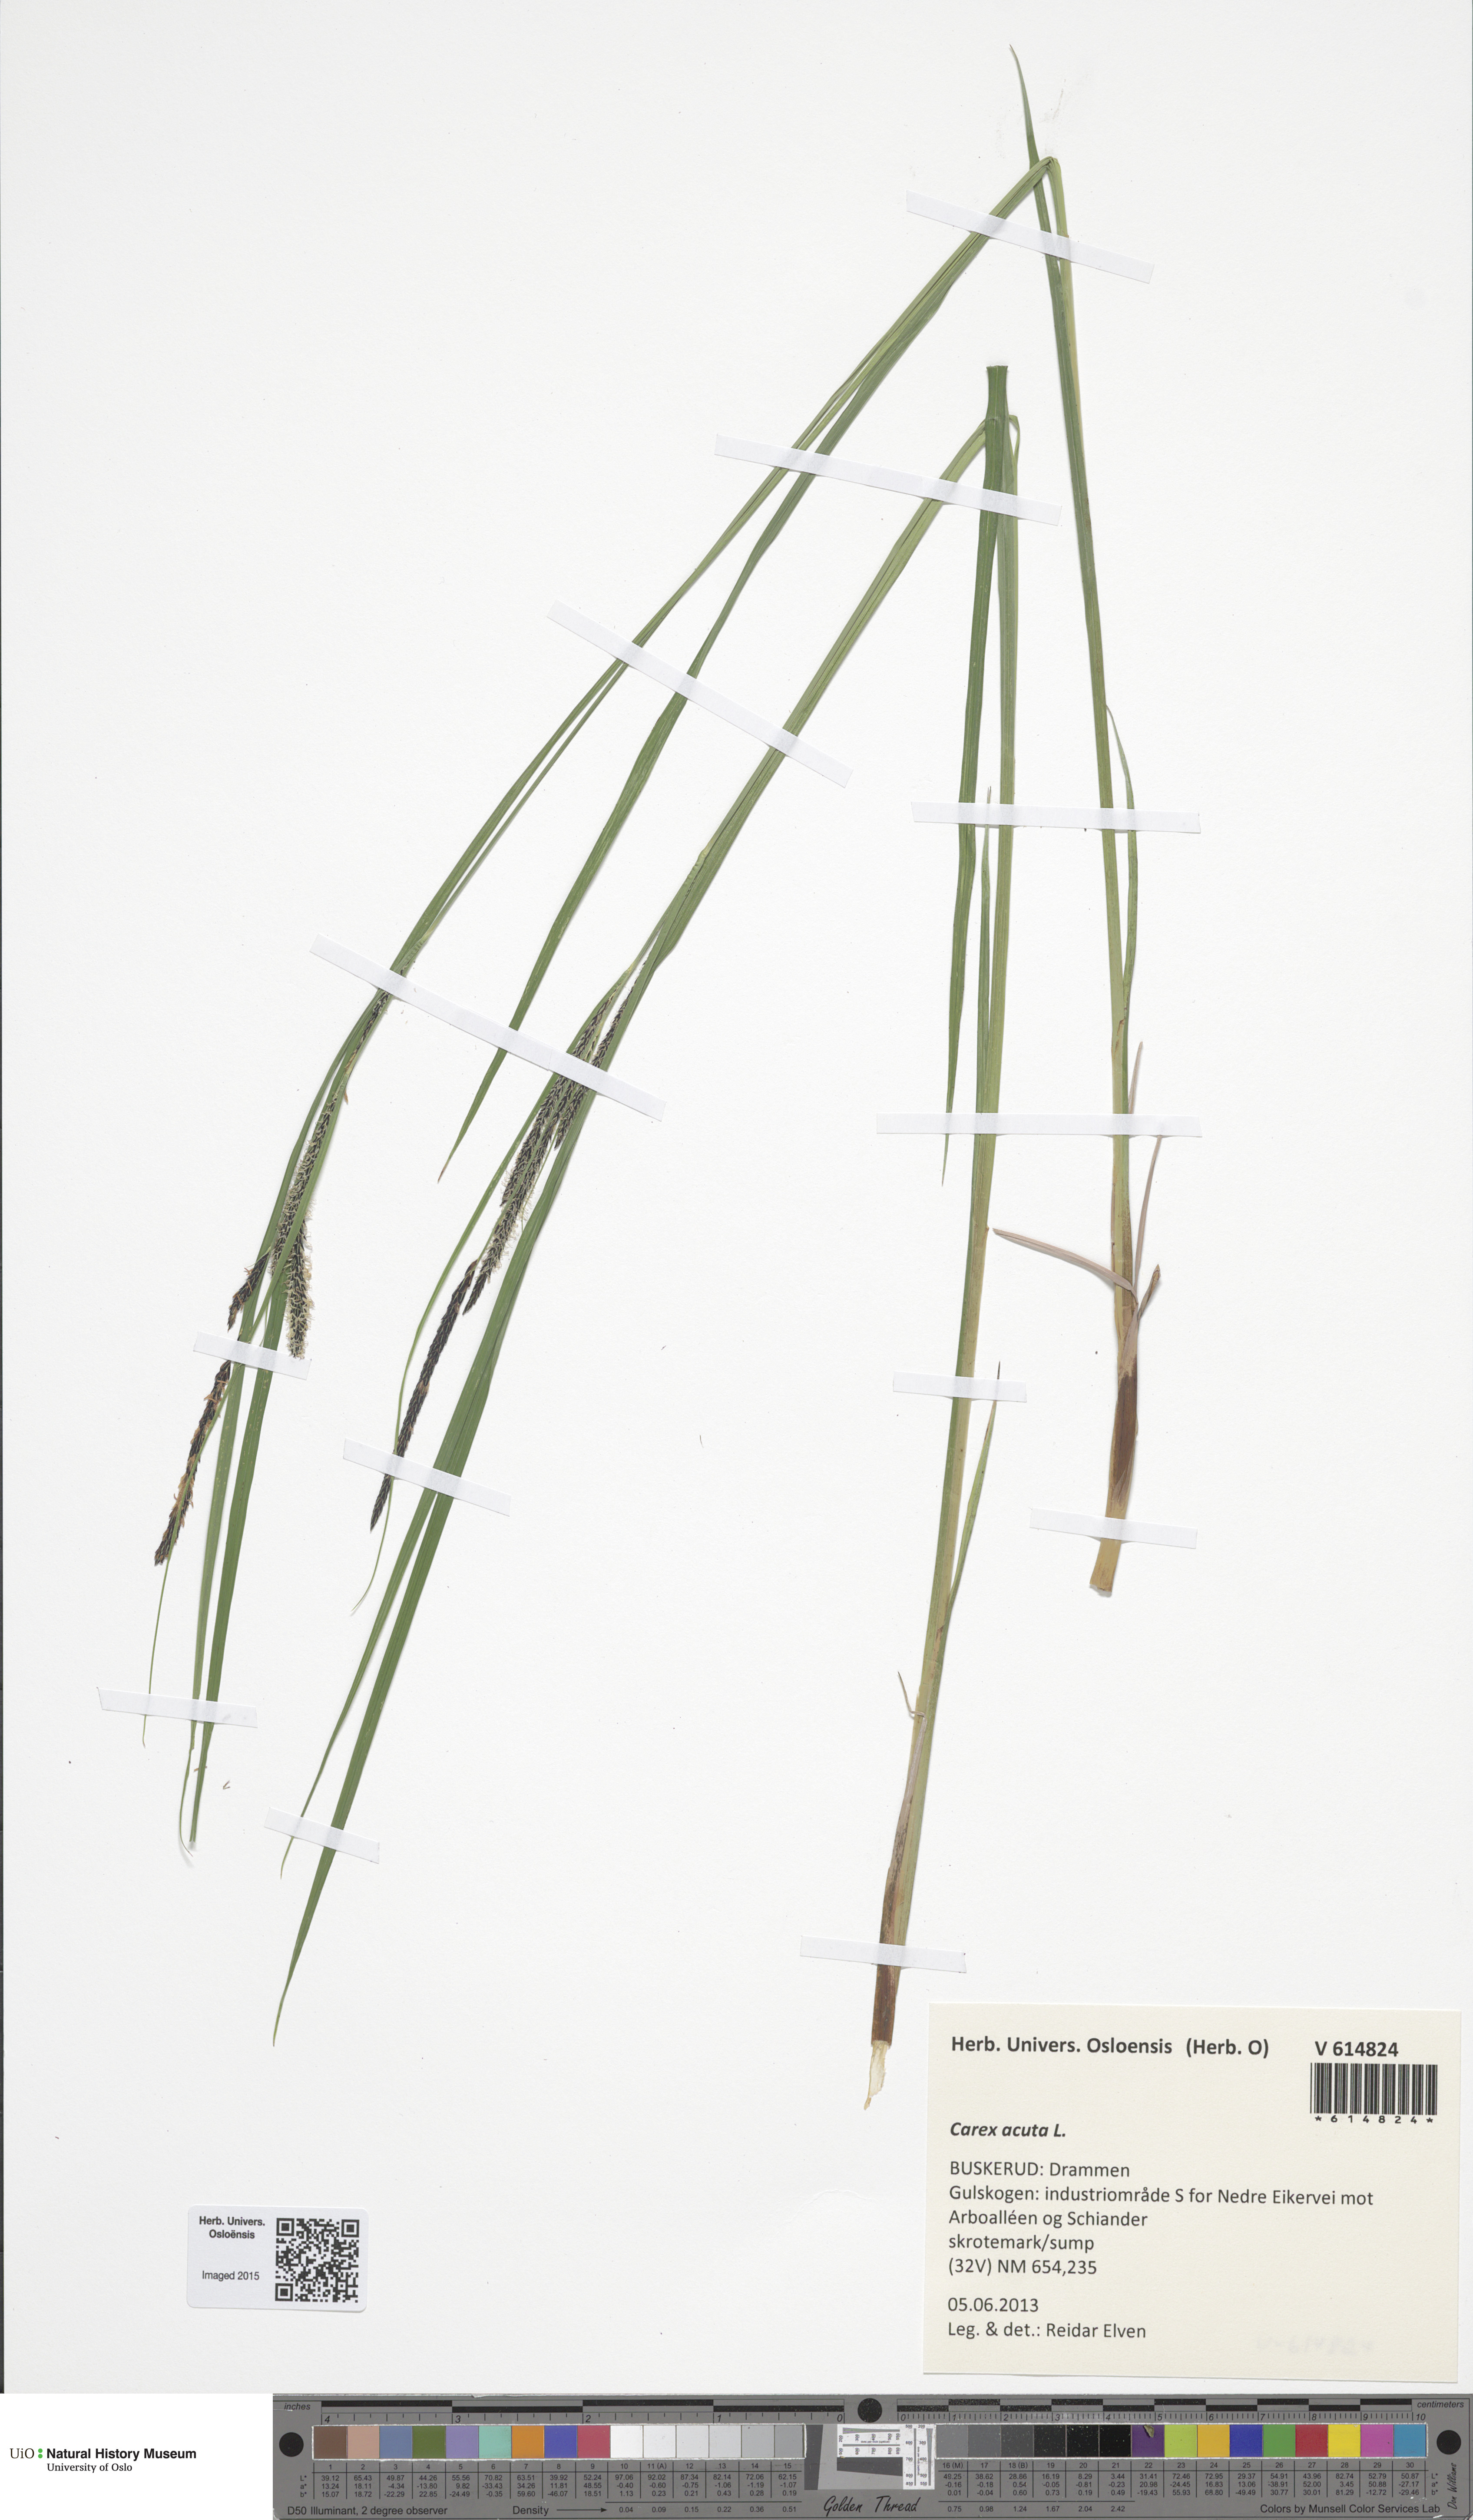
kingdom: Plantae
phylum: Tracheophyta
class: Liliopsida
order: Poales
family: Cyperaceae
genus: Carex
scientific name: Carex acuta
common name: Slender tufted-sedge
